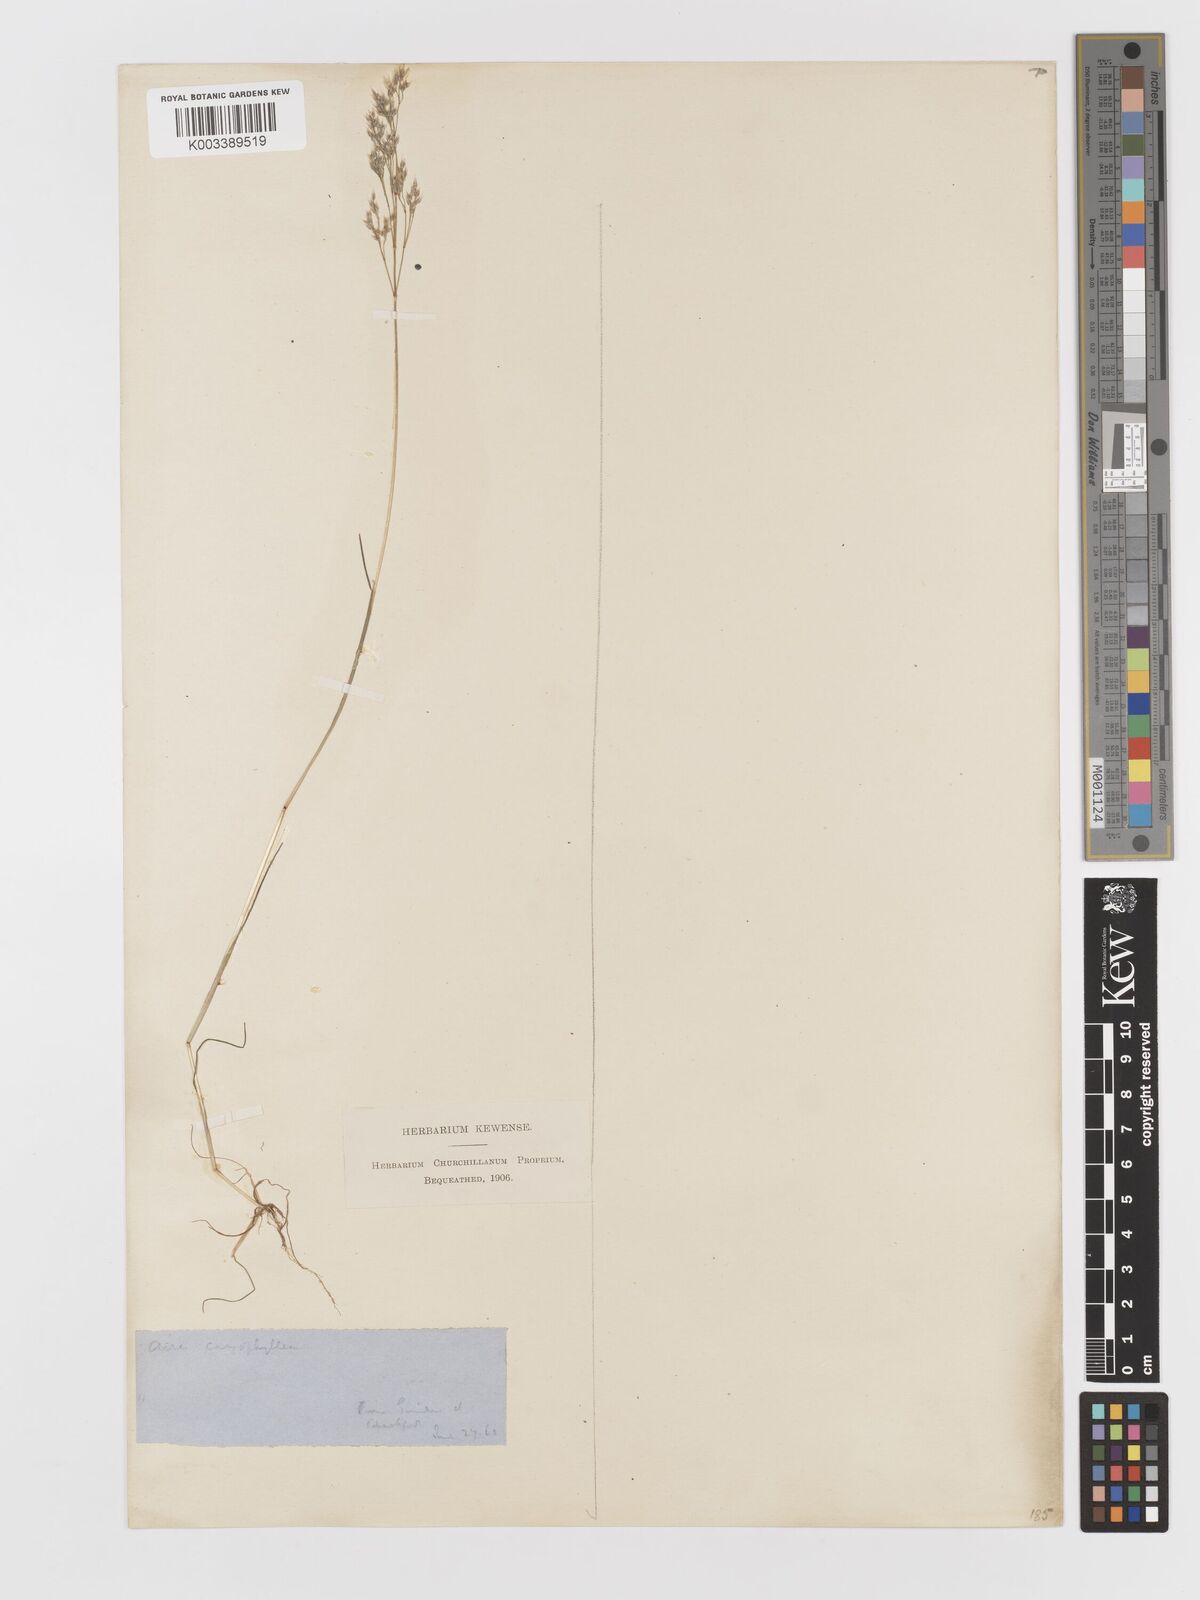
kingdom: Plantae
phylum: Tracheophyta
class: Liliopsida
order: Poales
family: Poaceae
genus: Aira
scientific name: Aira caryophyllea
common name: Silver hairgrass
